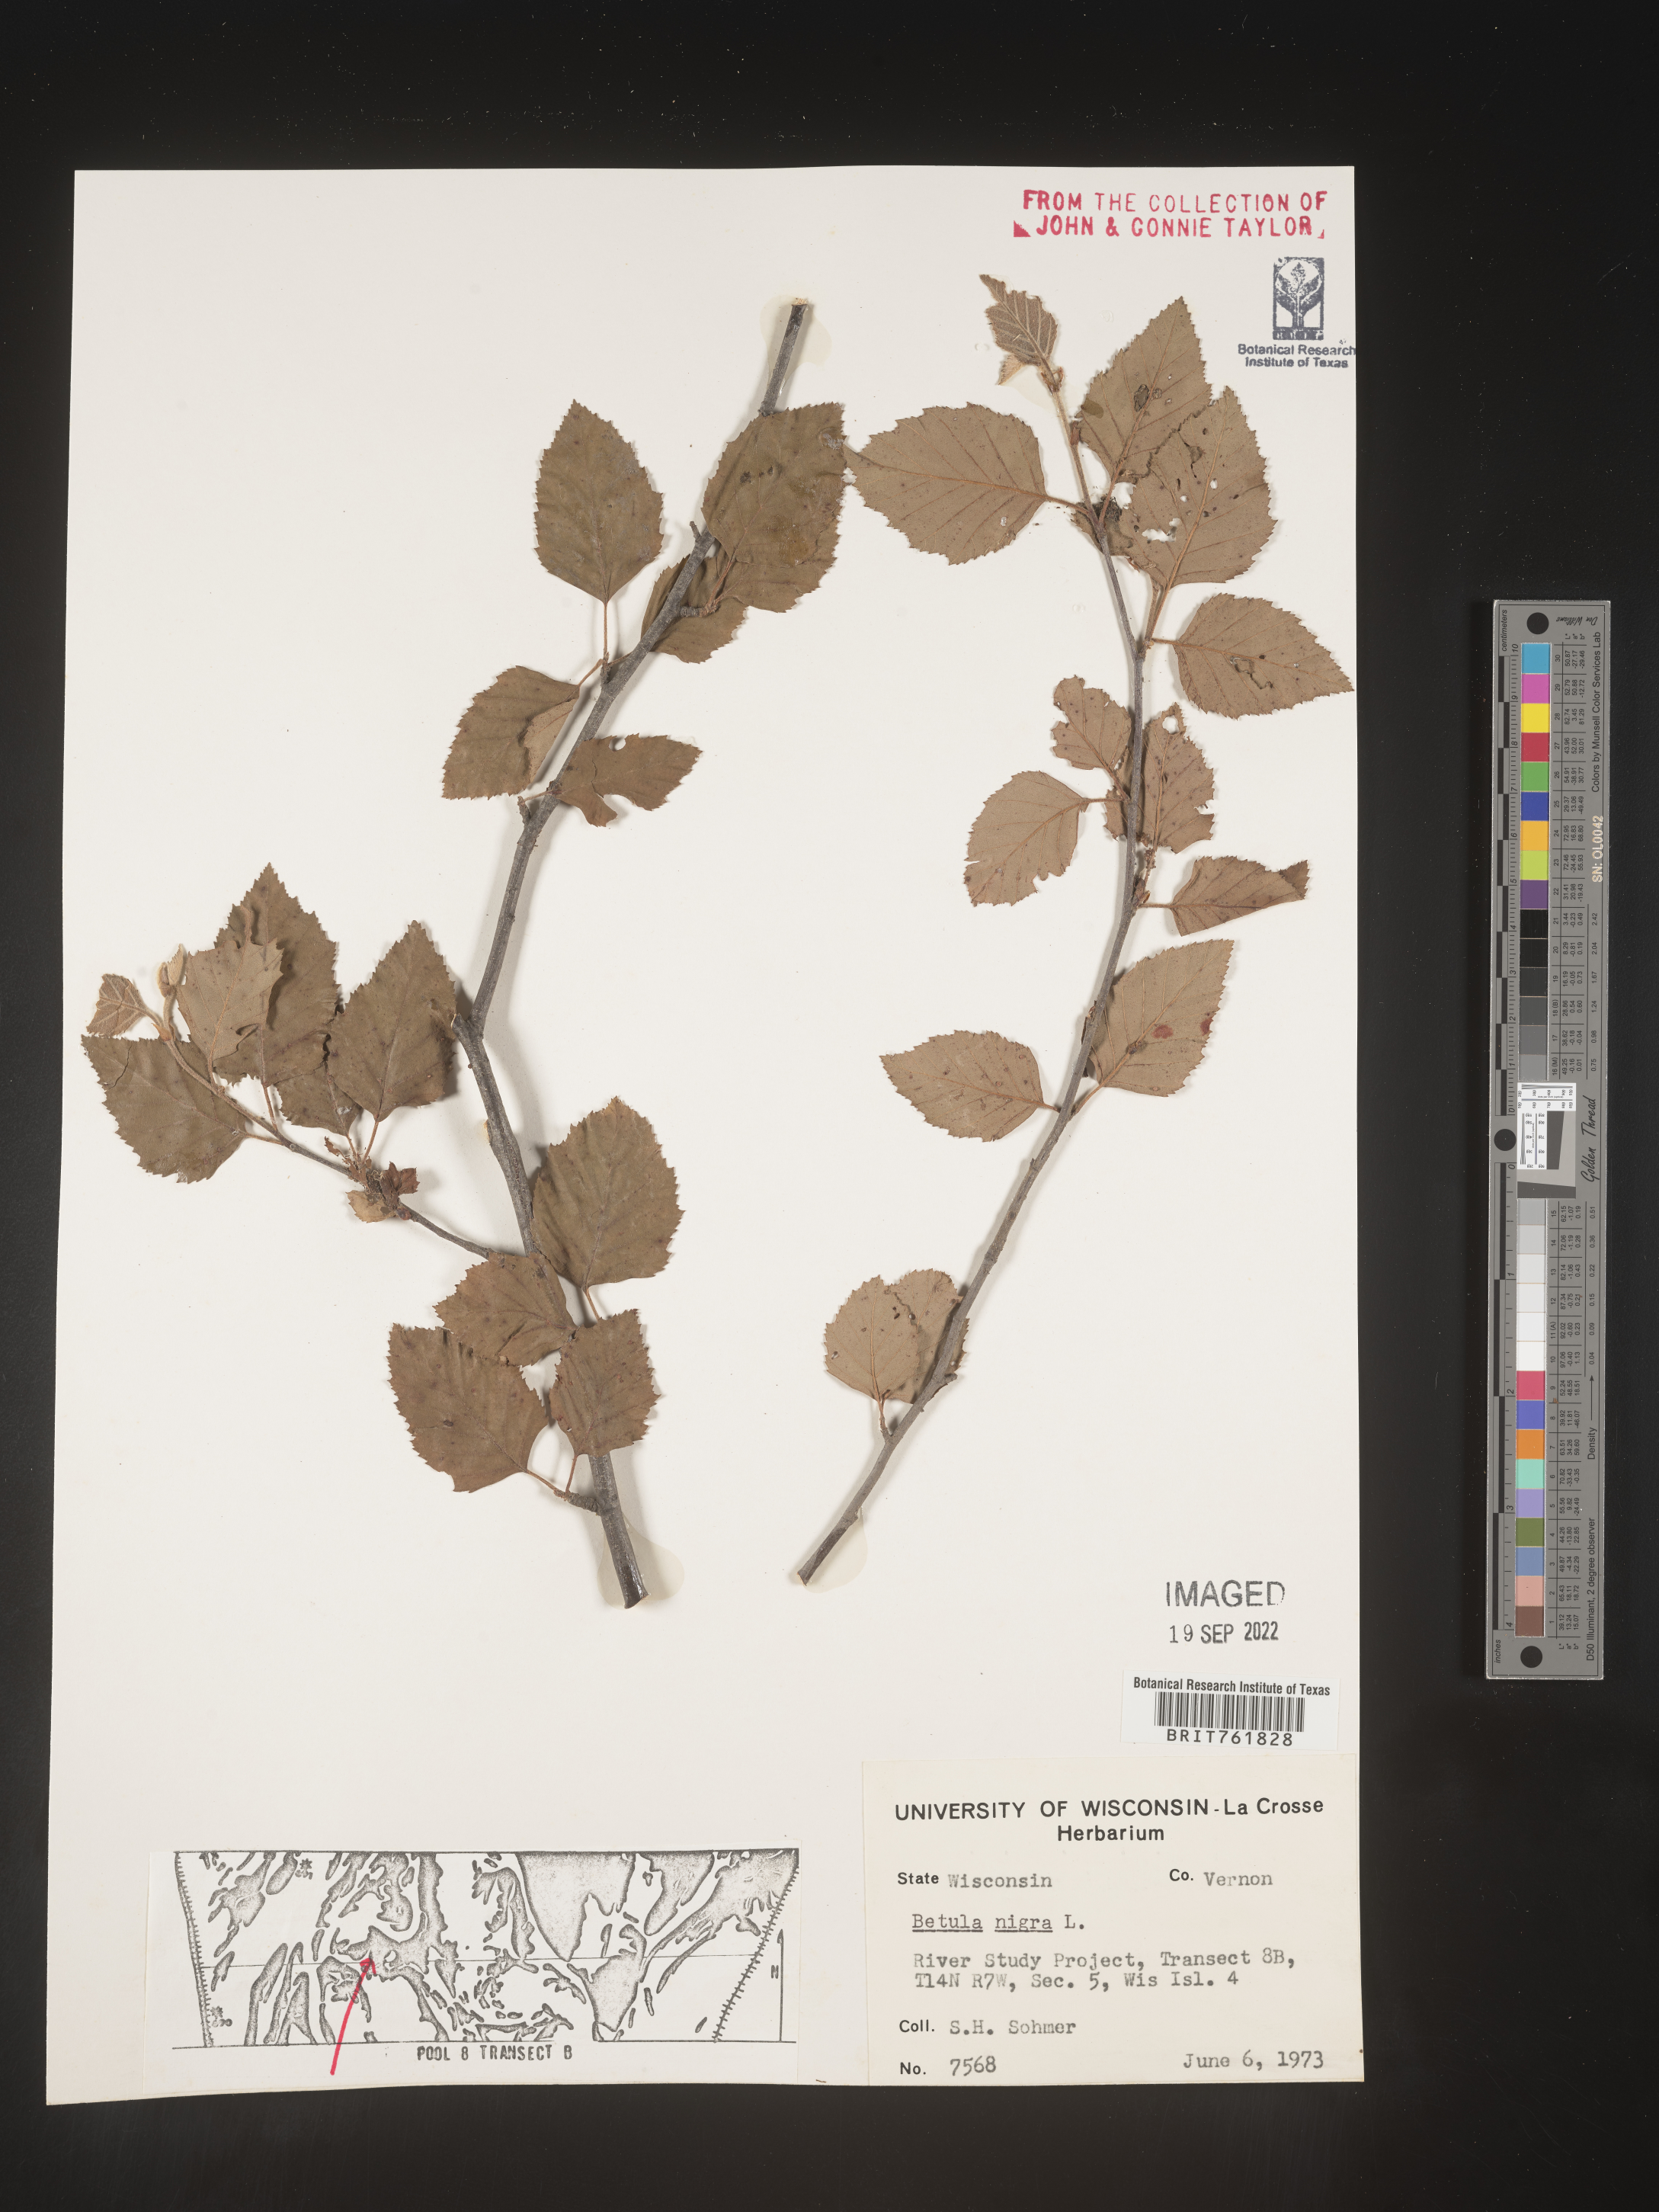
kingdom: Plantae
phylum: Tracheophyta
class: Magnoliopsida
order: Fagales
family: Betulaceae
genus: Betula
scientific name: Betula nigra
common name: Black birch
